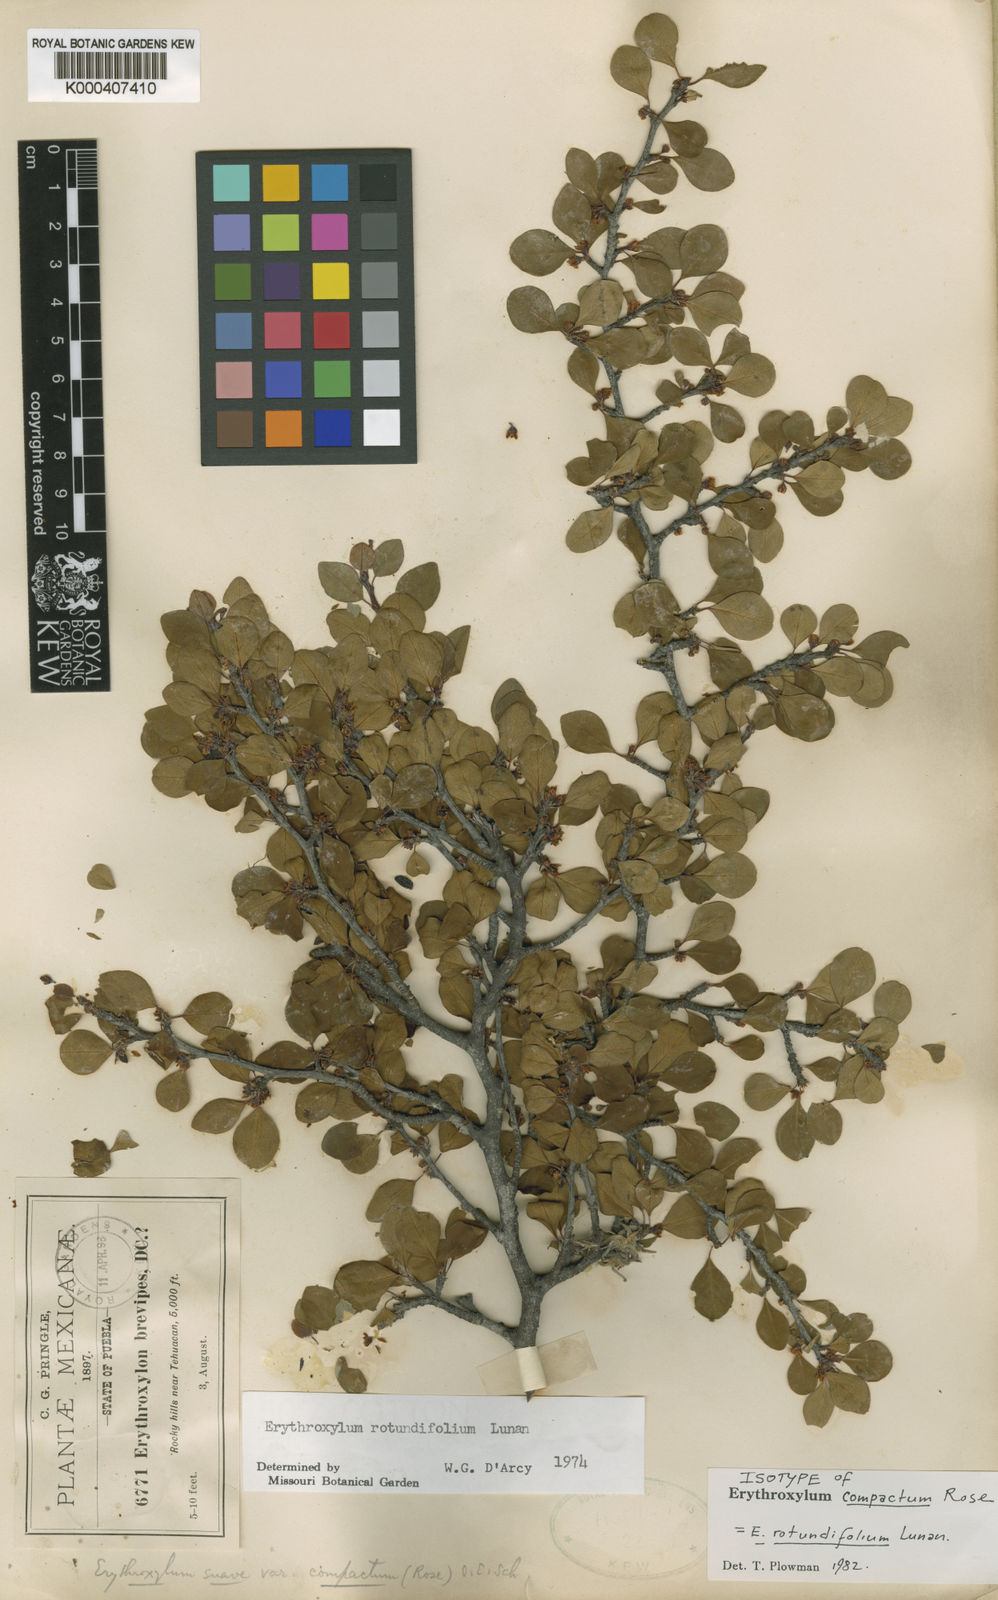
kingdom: Plantae
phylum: Tracheophyta
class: Magnoliopsida
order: Malpighiales
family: Erythroxylaceae
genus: Erythroxylum
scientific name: Erythroxylum rotundifolium
